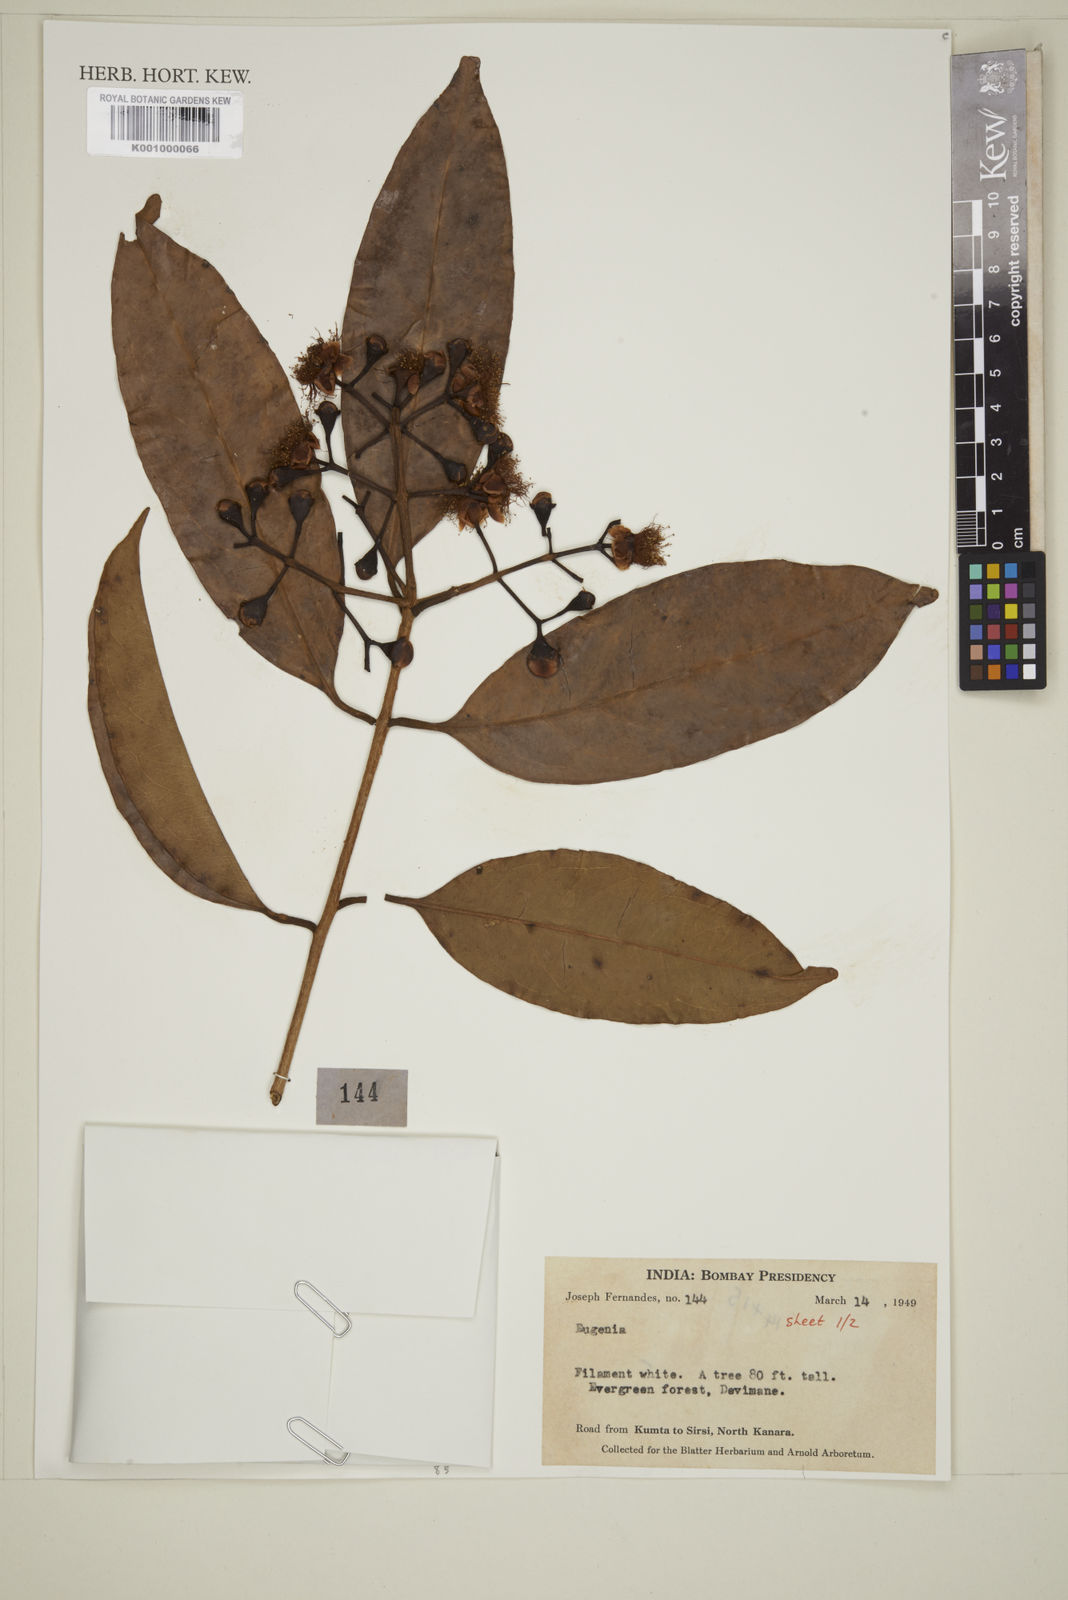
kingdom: Plantae
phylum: Tracheophyta
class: Magnoliopsida
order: Myrtales
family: Myrtaceae
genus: Eugenia
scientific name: Eugenia
